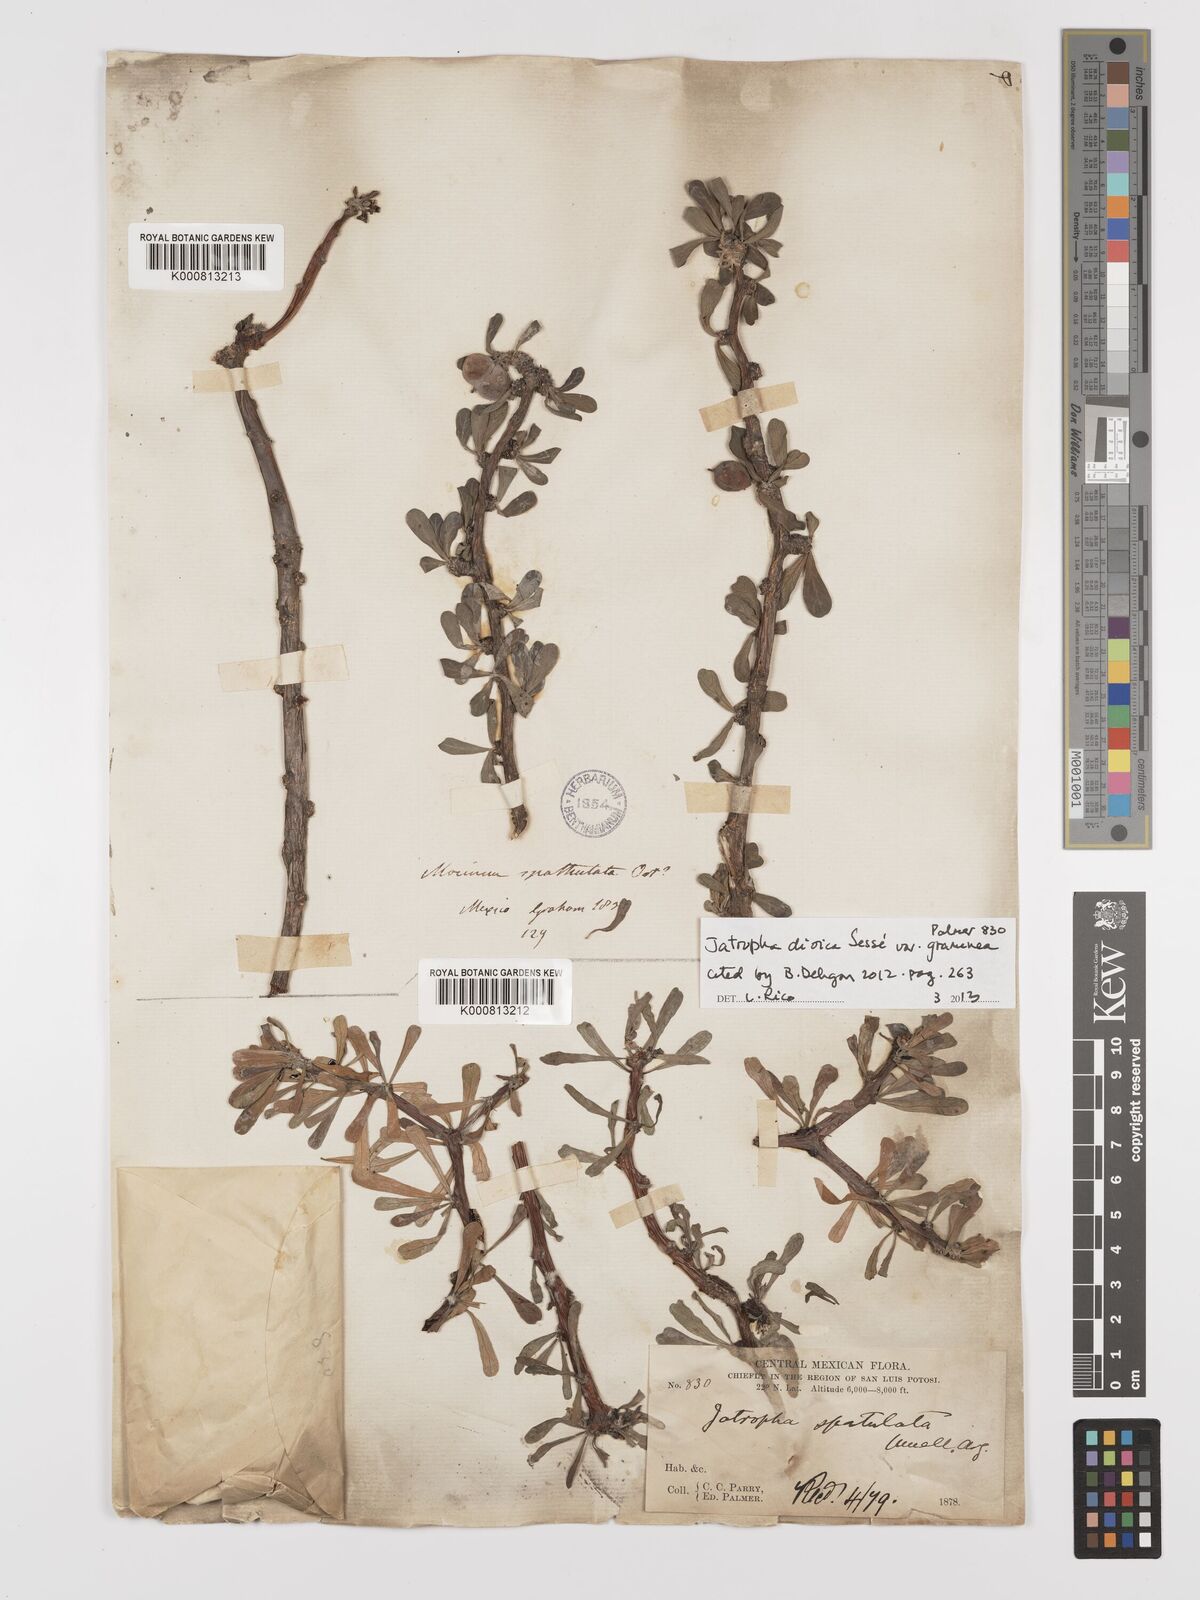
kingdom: Plantae
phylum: Tracheophyta
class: Magnoliopsida
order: Malpighiales
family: Euphorbiaceae
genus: Jatropha
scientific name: Jatropha
